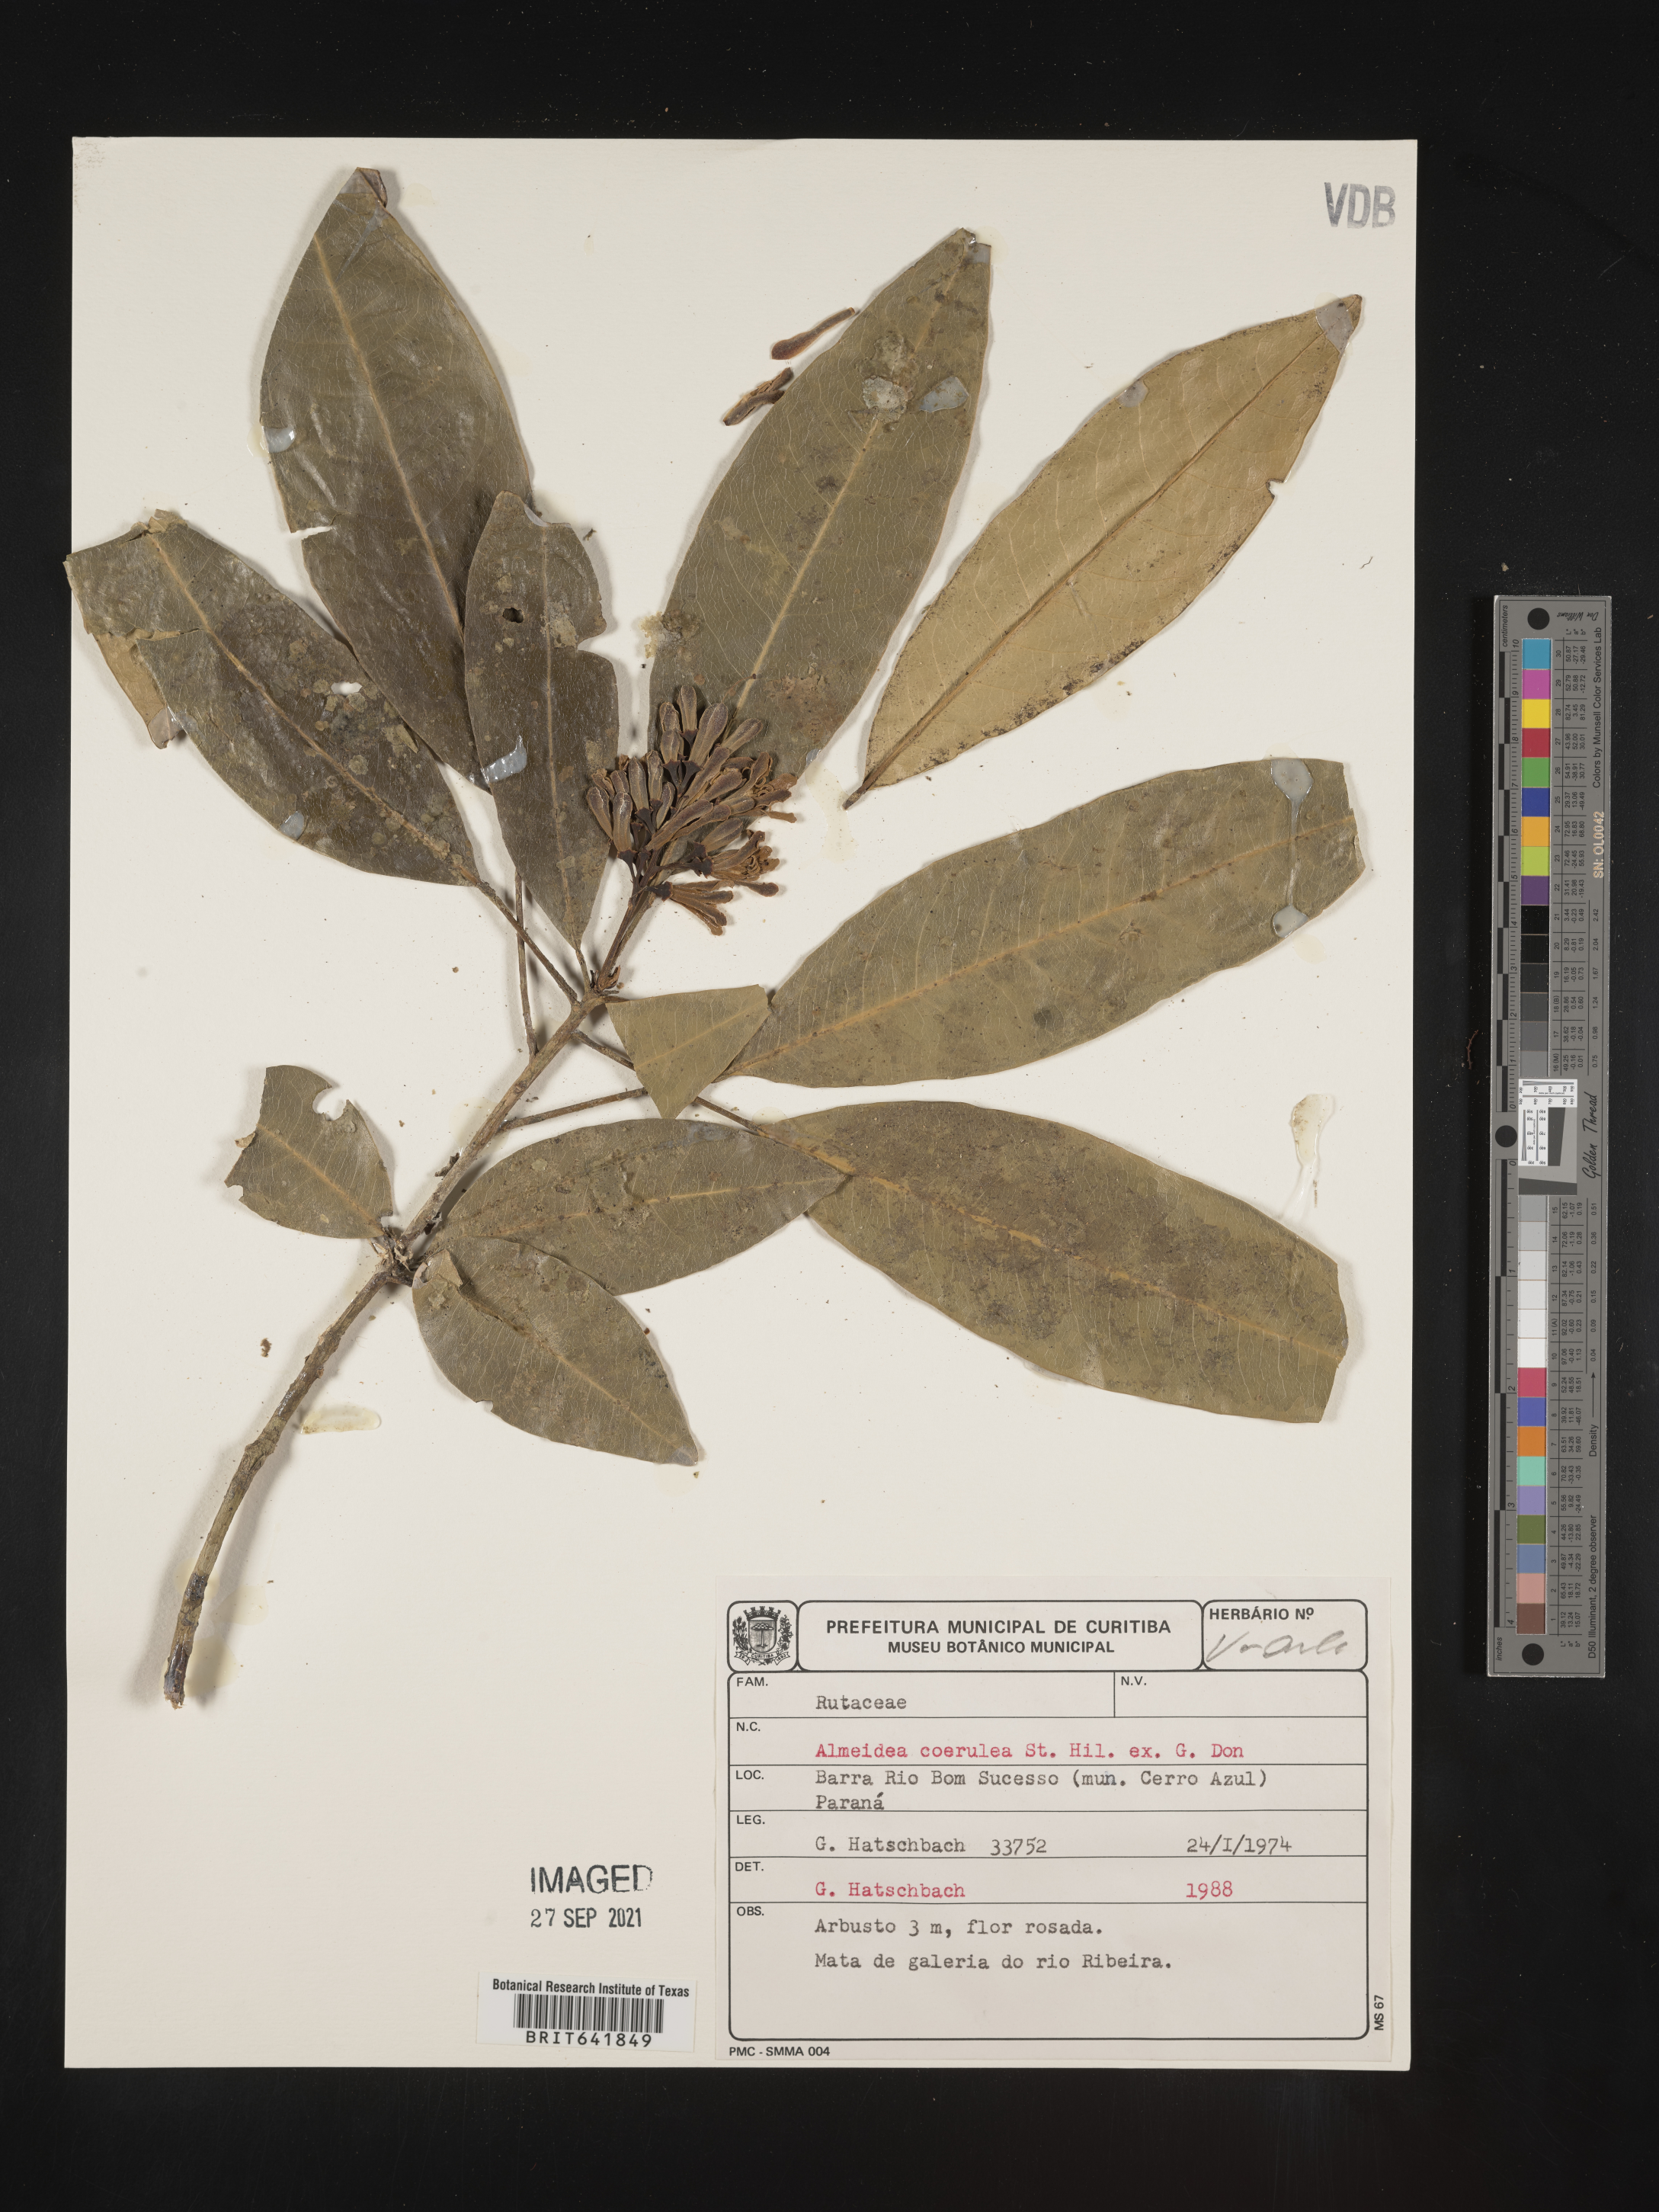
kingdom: Plantae
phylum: Tracheophyta
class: Magnoliopsida
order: Sapindales
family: Rutaceae
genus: Conchocarpus
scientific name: Conchocarpus
